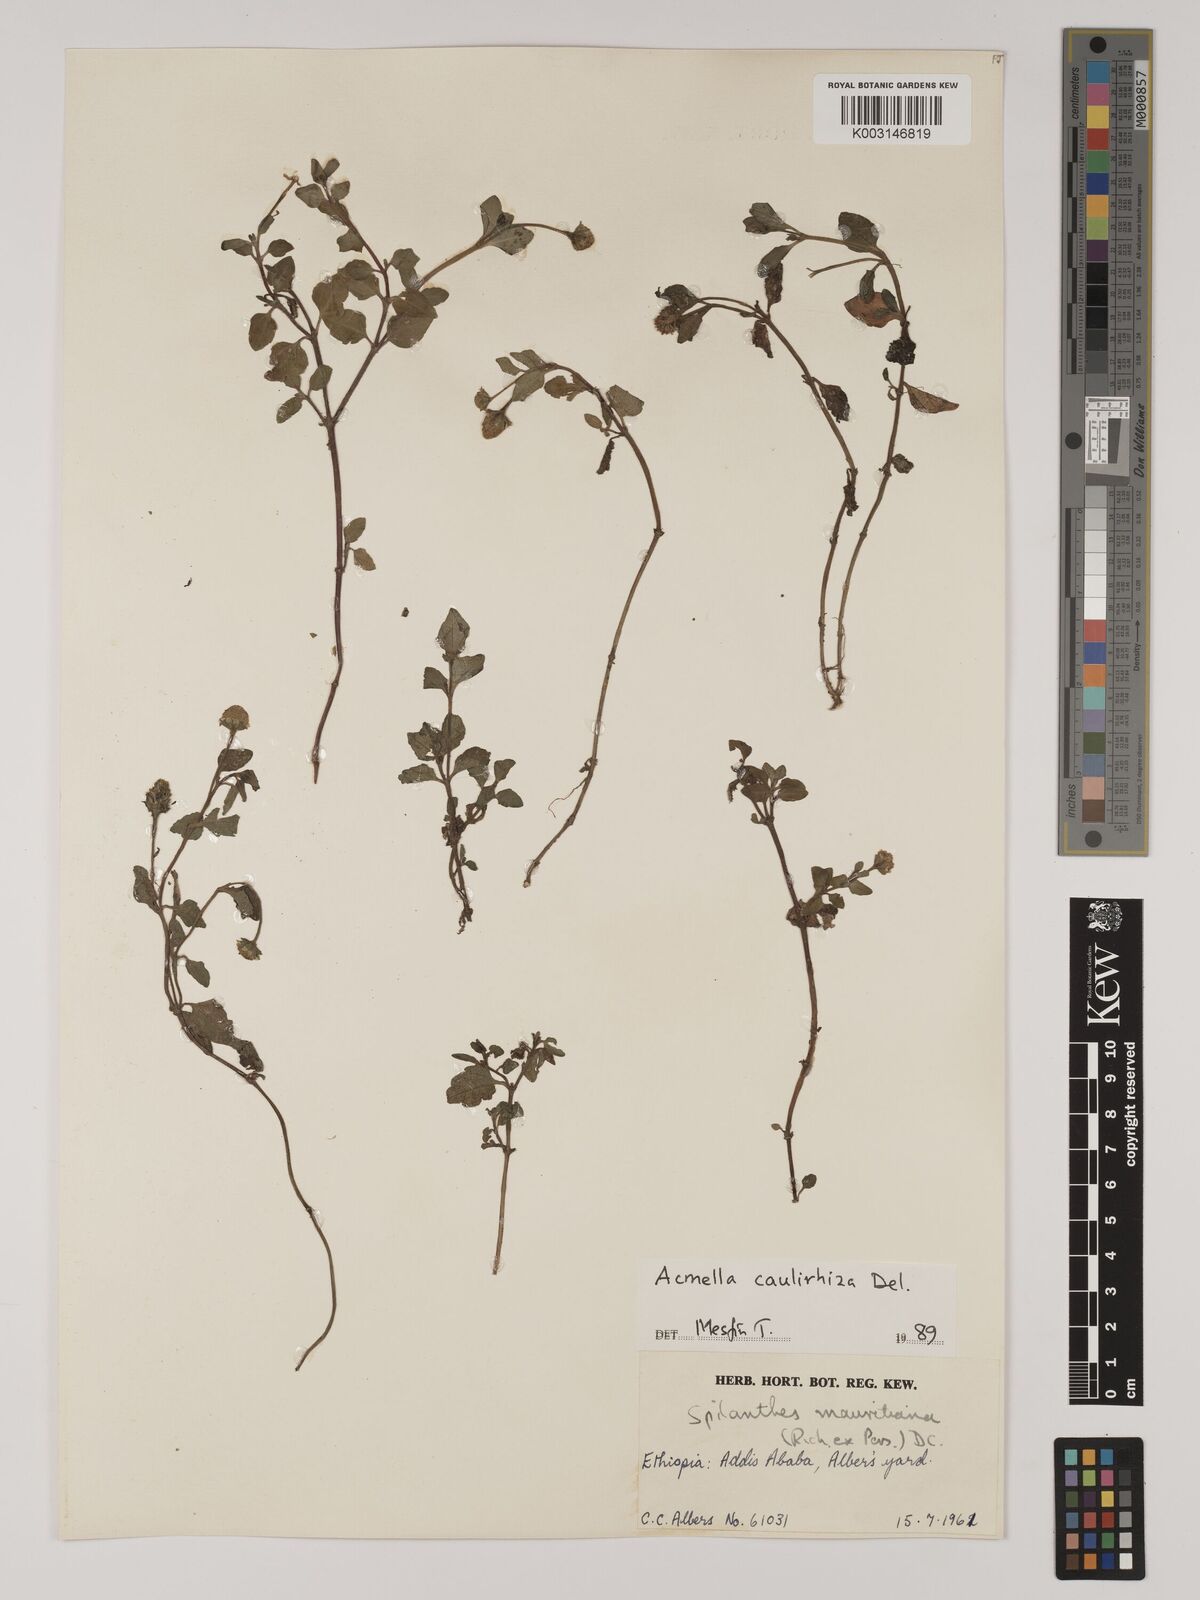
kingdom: Plantae
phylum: Tracheophyta
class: Magnoliopsida
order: Asterales
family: Asteraceae
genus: Blainvillea
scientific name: Blainvillea acmella
